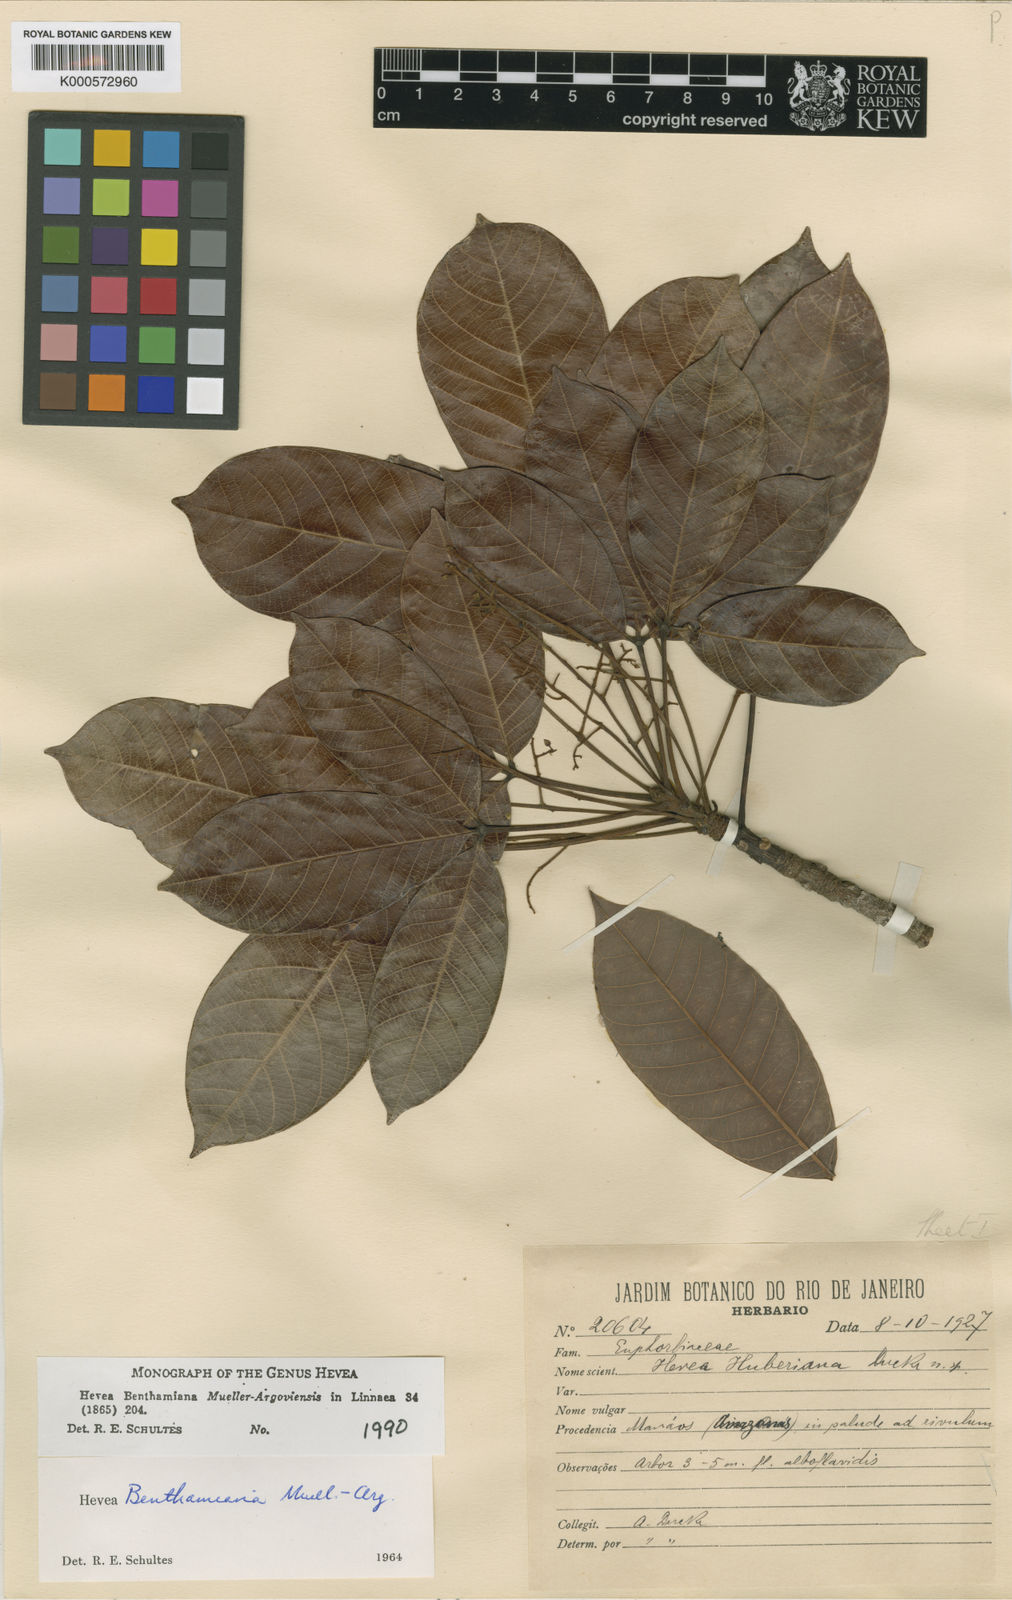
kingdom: Plantae
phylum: Tracheophyta
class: Magnoliopsida
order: Malpighiales
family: Euphorbiaceae
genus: Hevea
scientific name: Hevea
